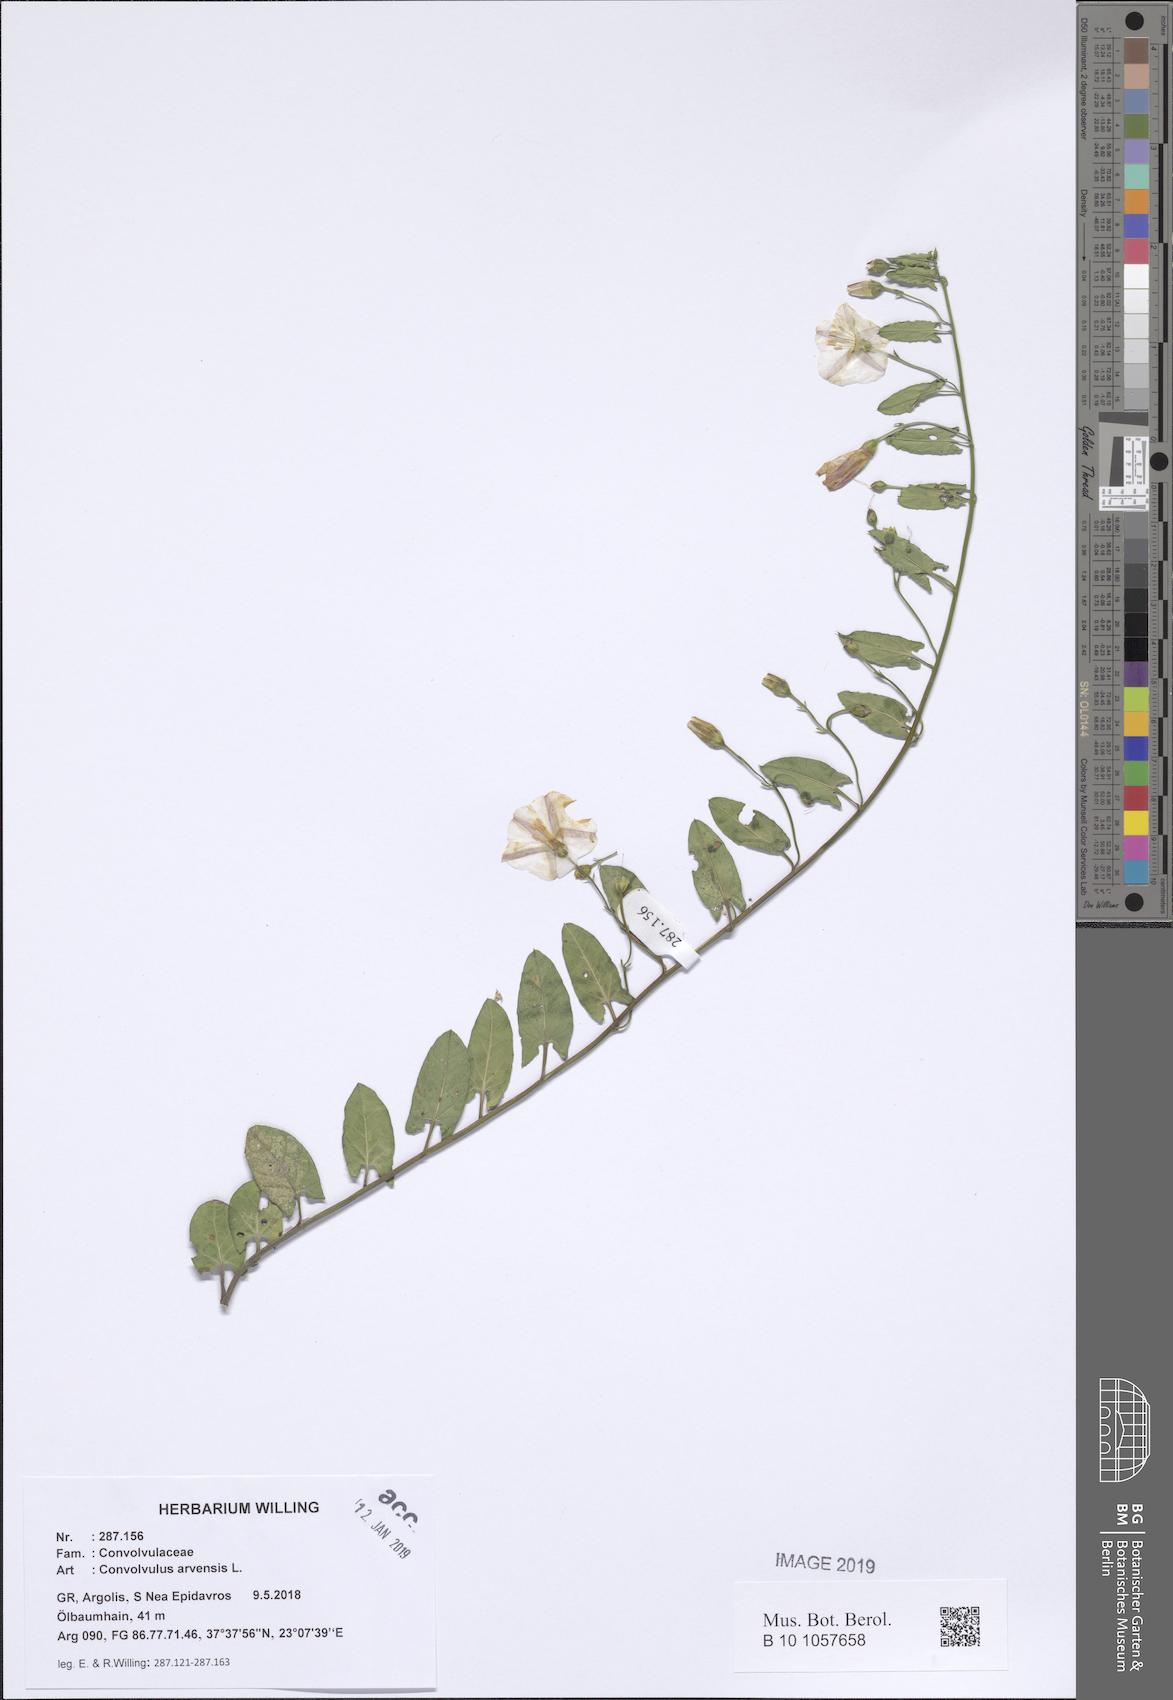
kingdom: Plantae
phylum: Tracheophyta
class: Magnoliopsida
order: Solanales
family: Convolvulaceae
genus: Convolvulus
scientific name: Convolvulus arvensis
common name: Field bindweed
